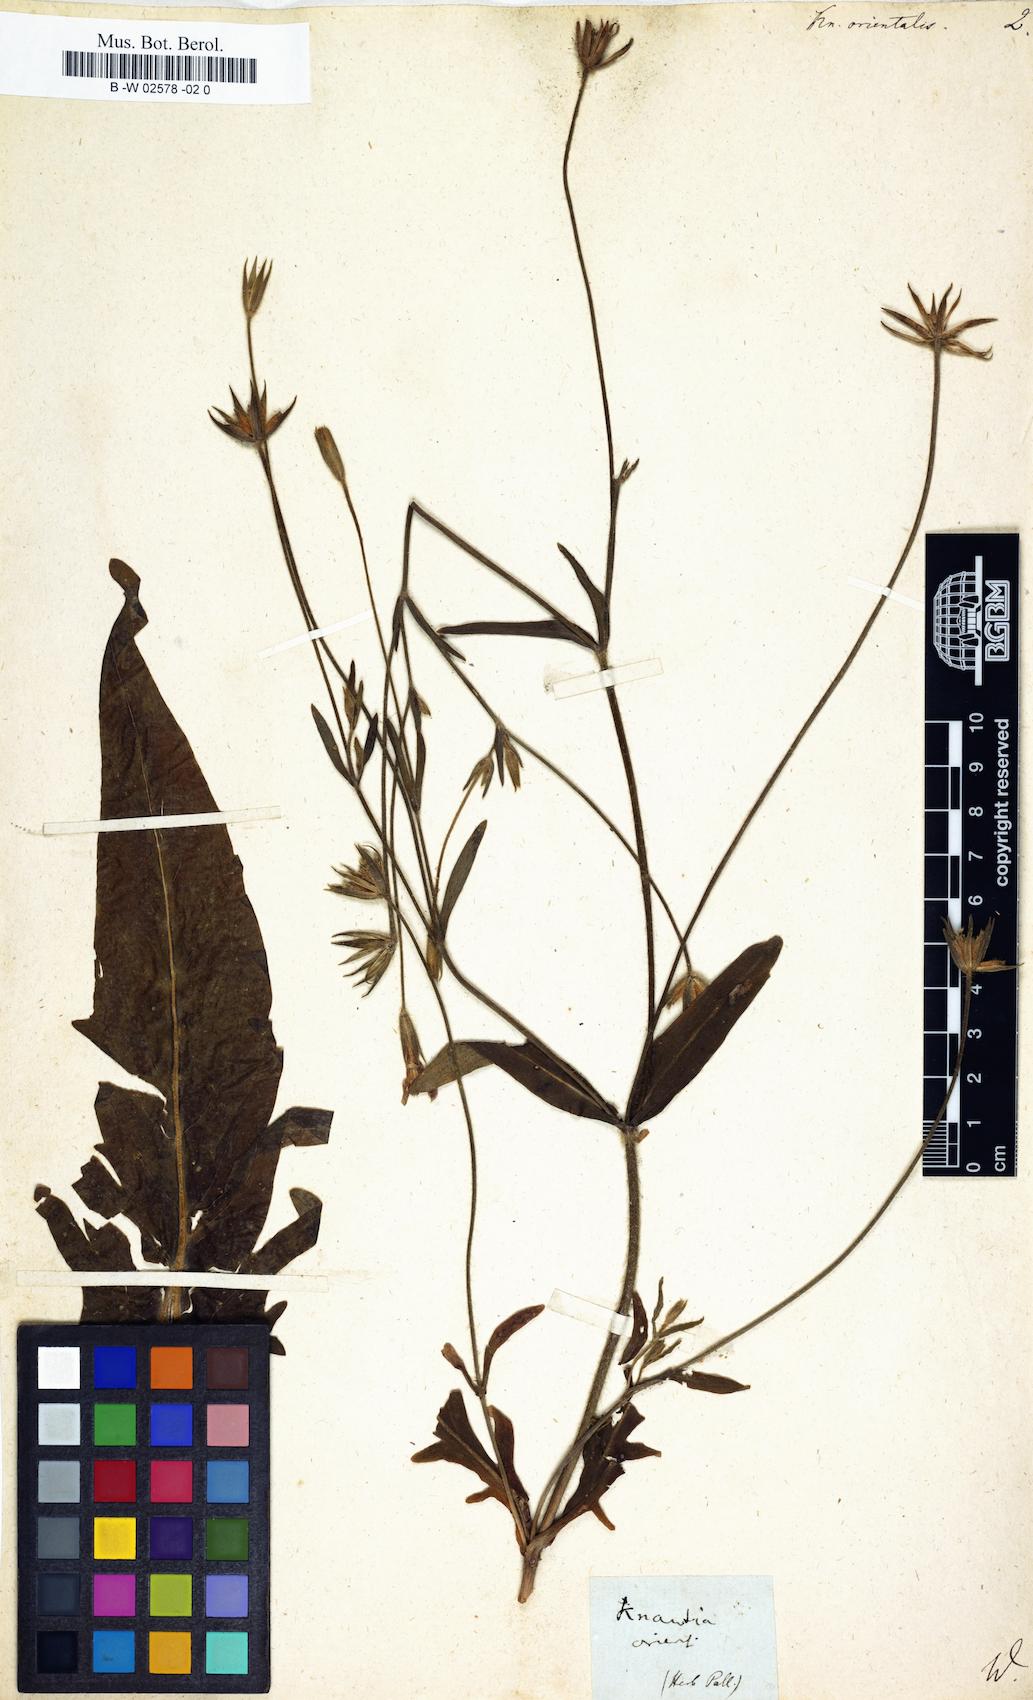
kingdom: Plantae
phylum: Tracheophyta
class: Magnoliopsida
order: Dipsacales
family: Caprifoliaceae
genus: Knautia
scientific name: Knautia orientalis
